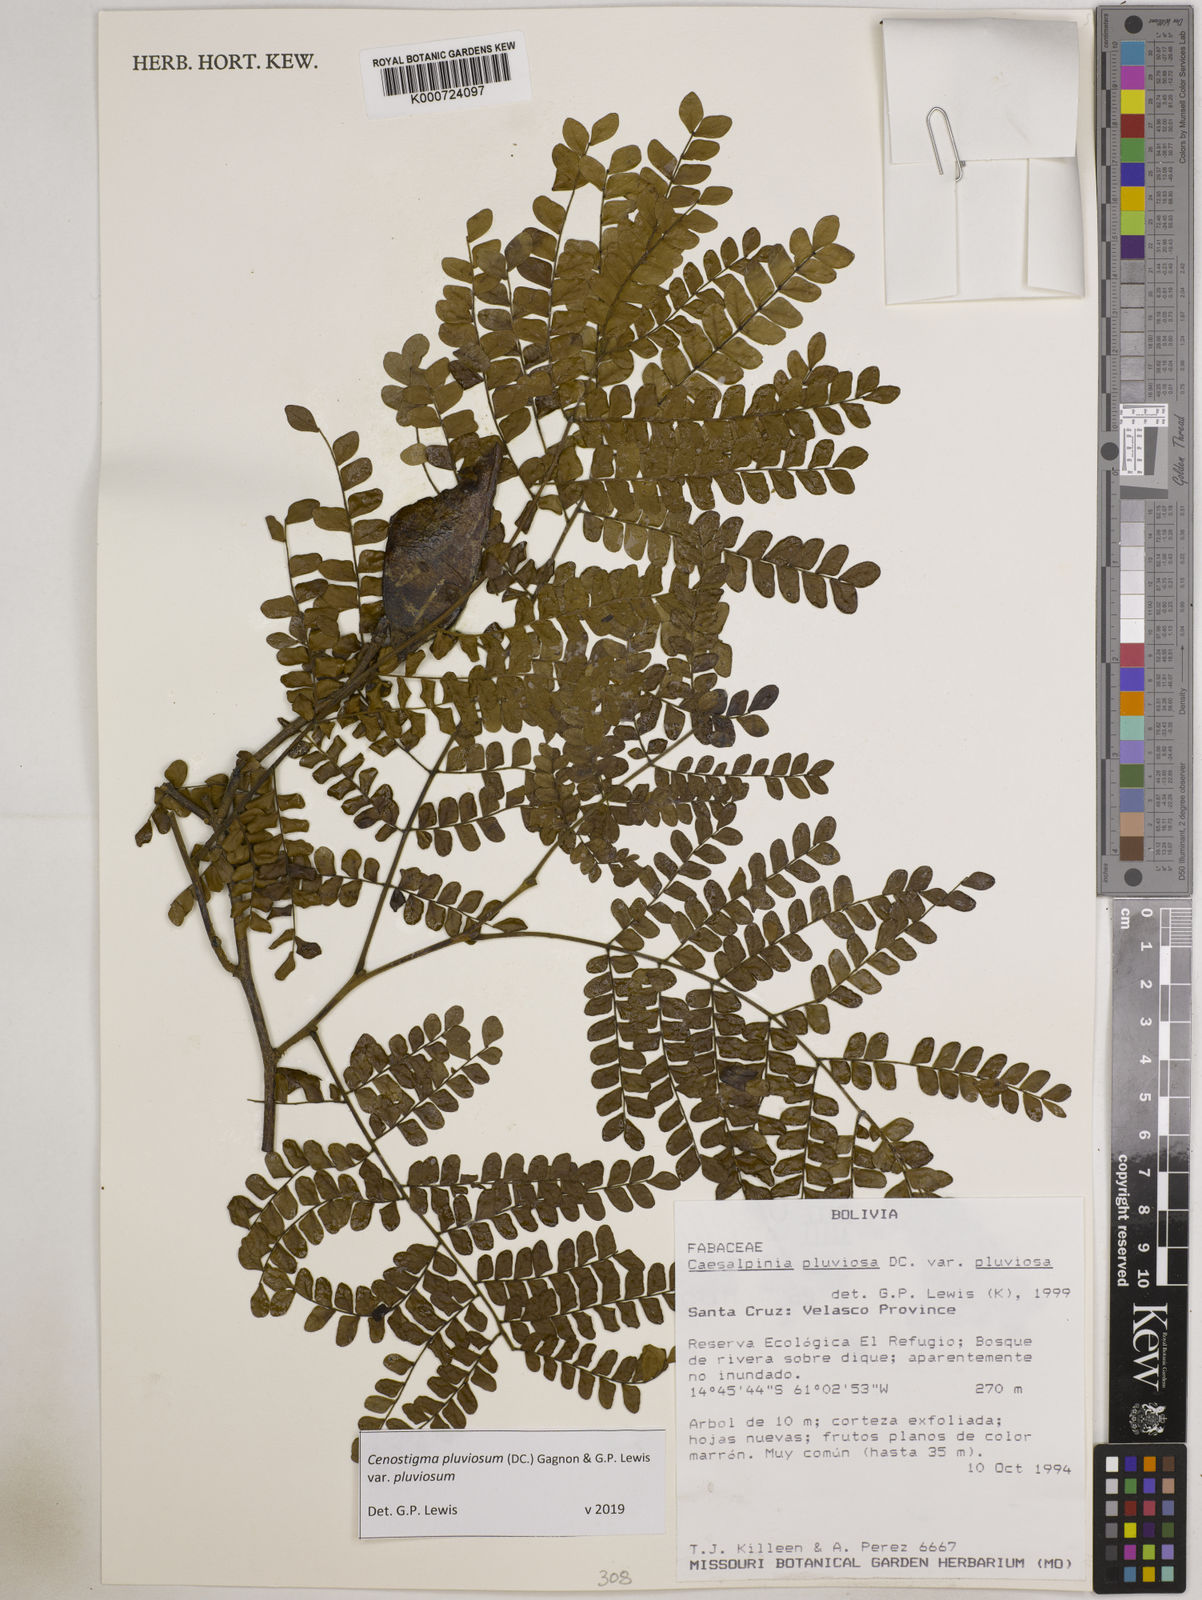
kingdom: Plantae
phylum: Tracheophyta
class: Magnoliopsida
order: Fabales
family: Fabaceae
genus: Cenostigma
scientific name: Cenostigma pluviosum
